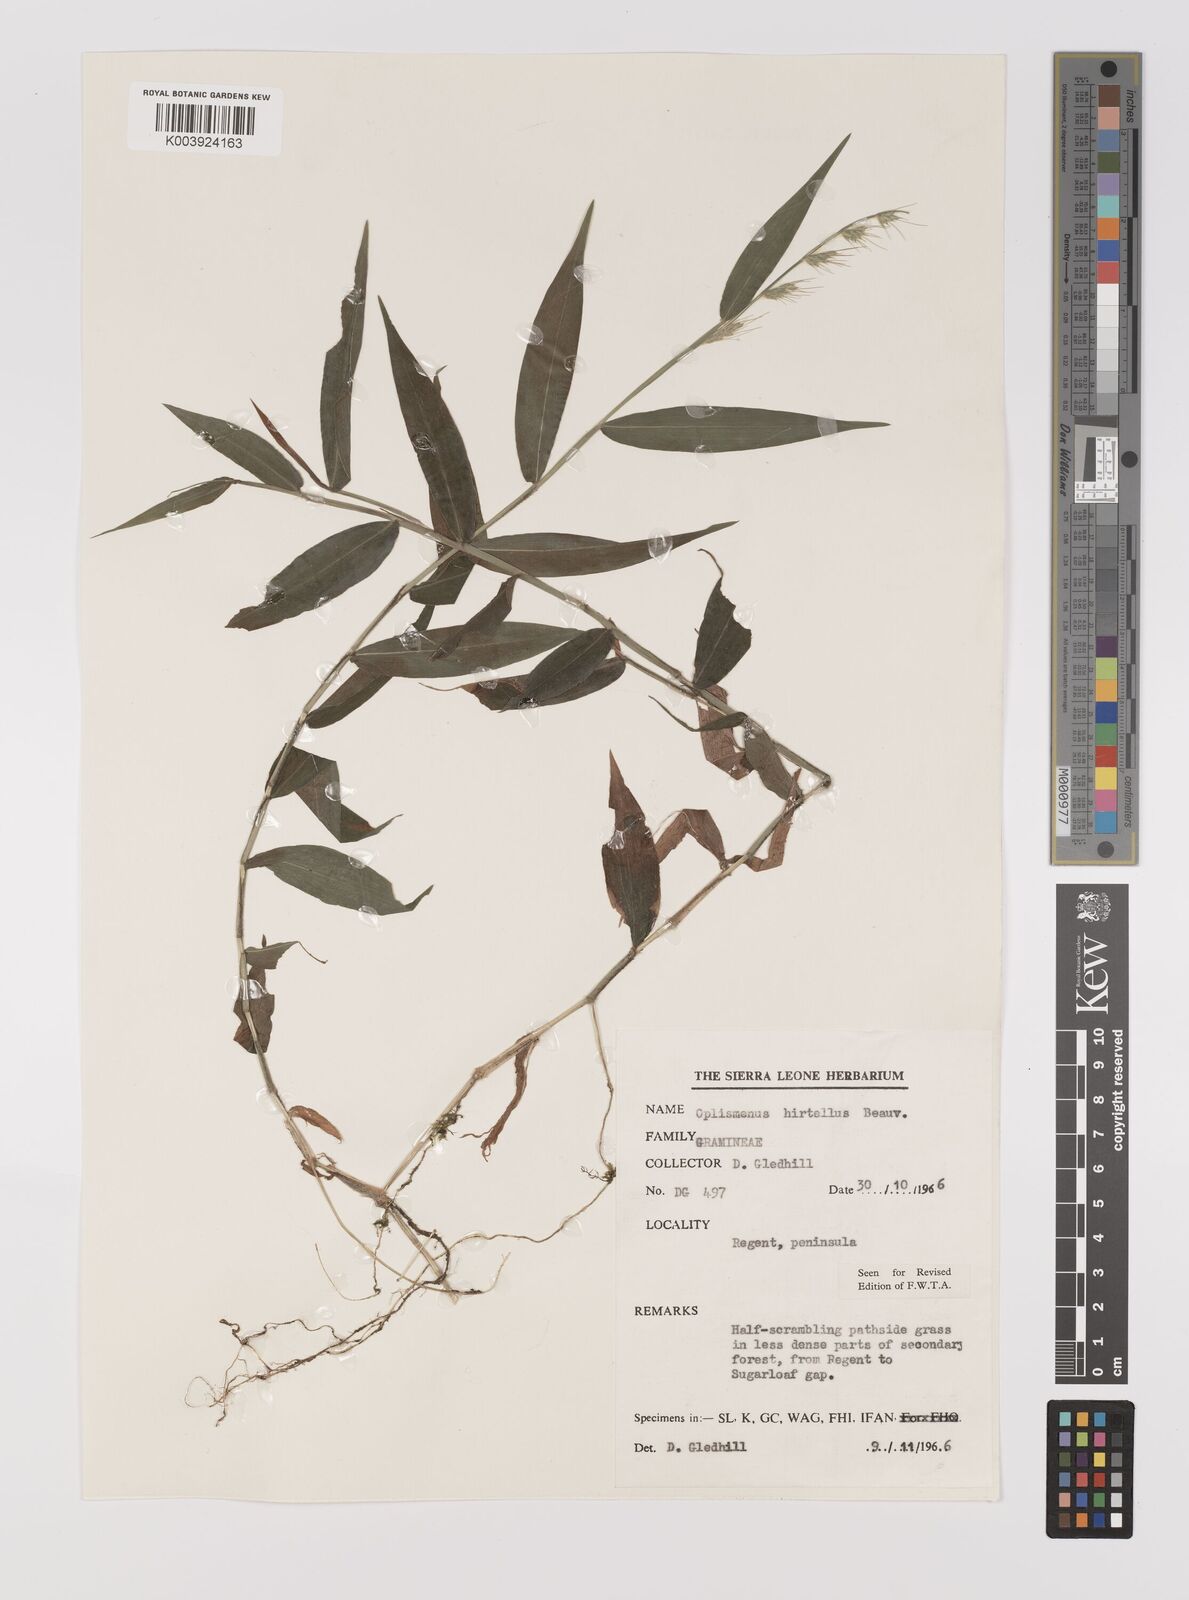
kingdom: Plantae
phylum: Tracheophyta
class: Liliopsida
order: Poales
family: Poaceae
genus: Oplismenus
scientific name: Oplismenus hirtellus
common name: Basketgrass
